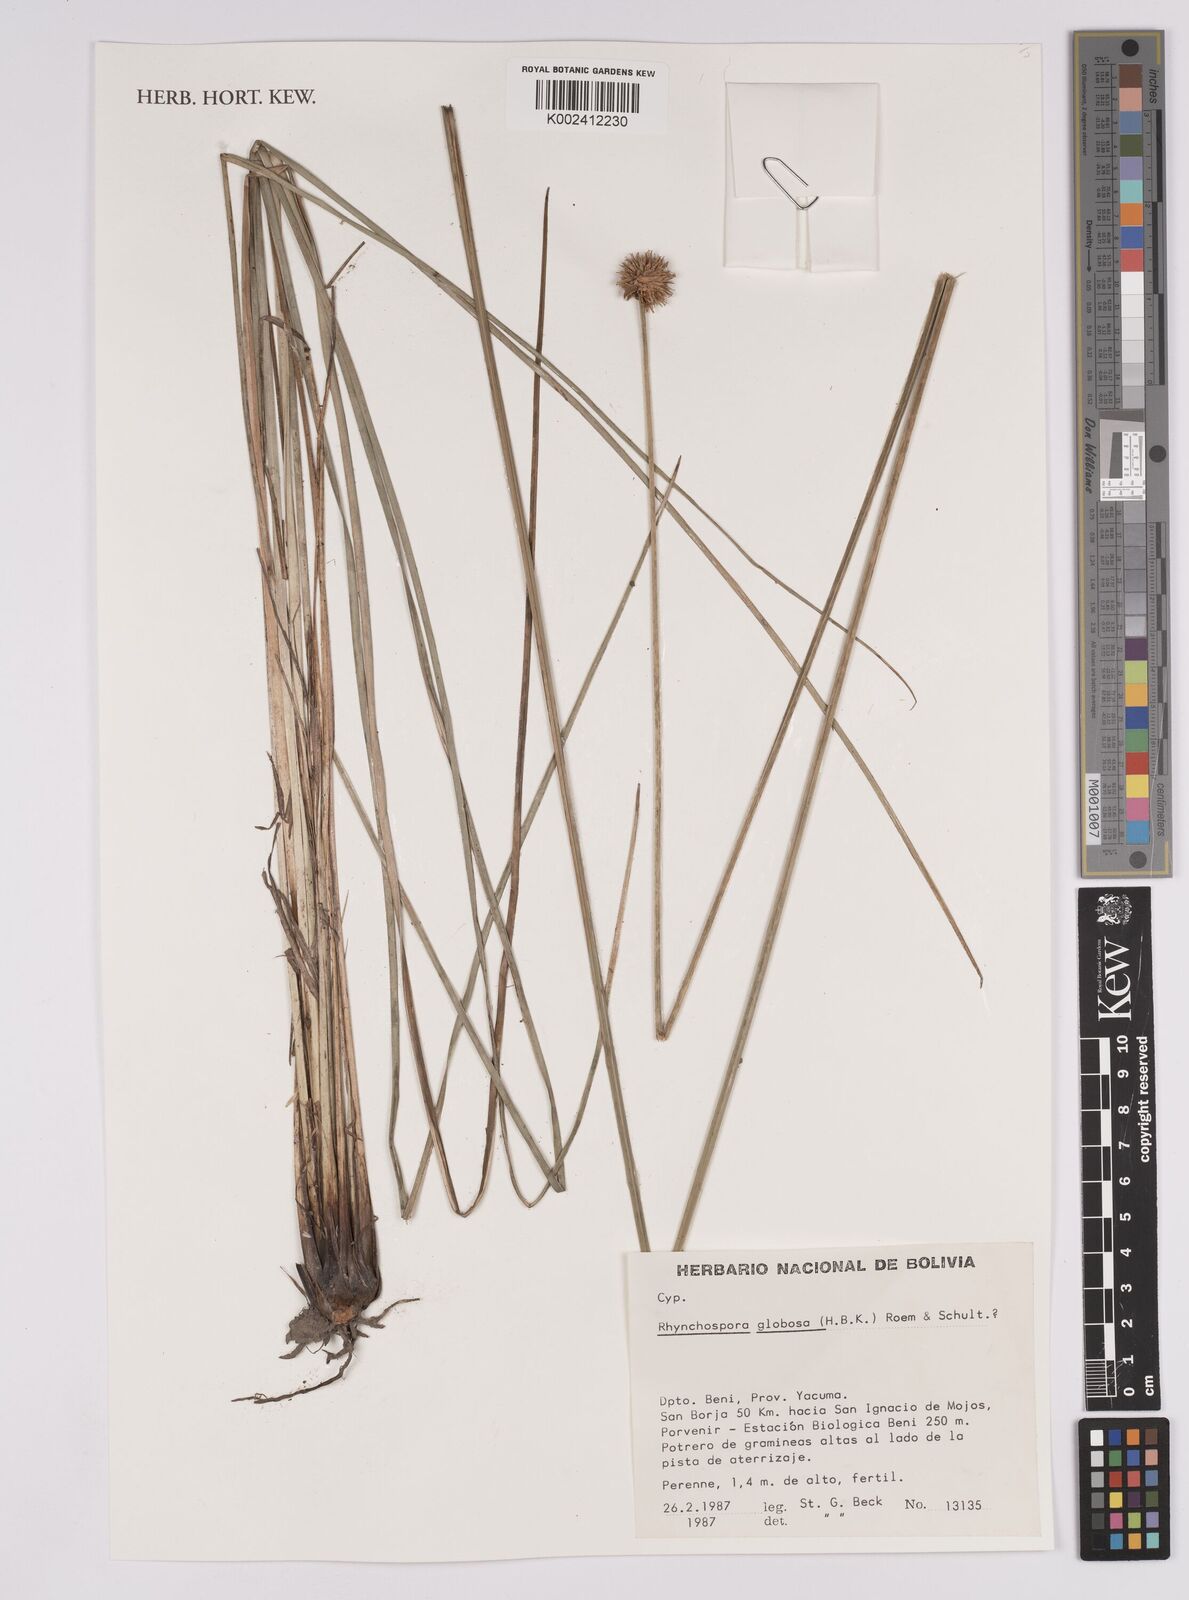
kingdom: Plantae
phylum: Tracheophyta
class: Liliopsida
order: Poales
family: Cyperaceae
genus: Rhynchospora
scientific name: Rhynchospora globosa
